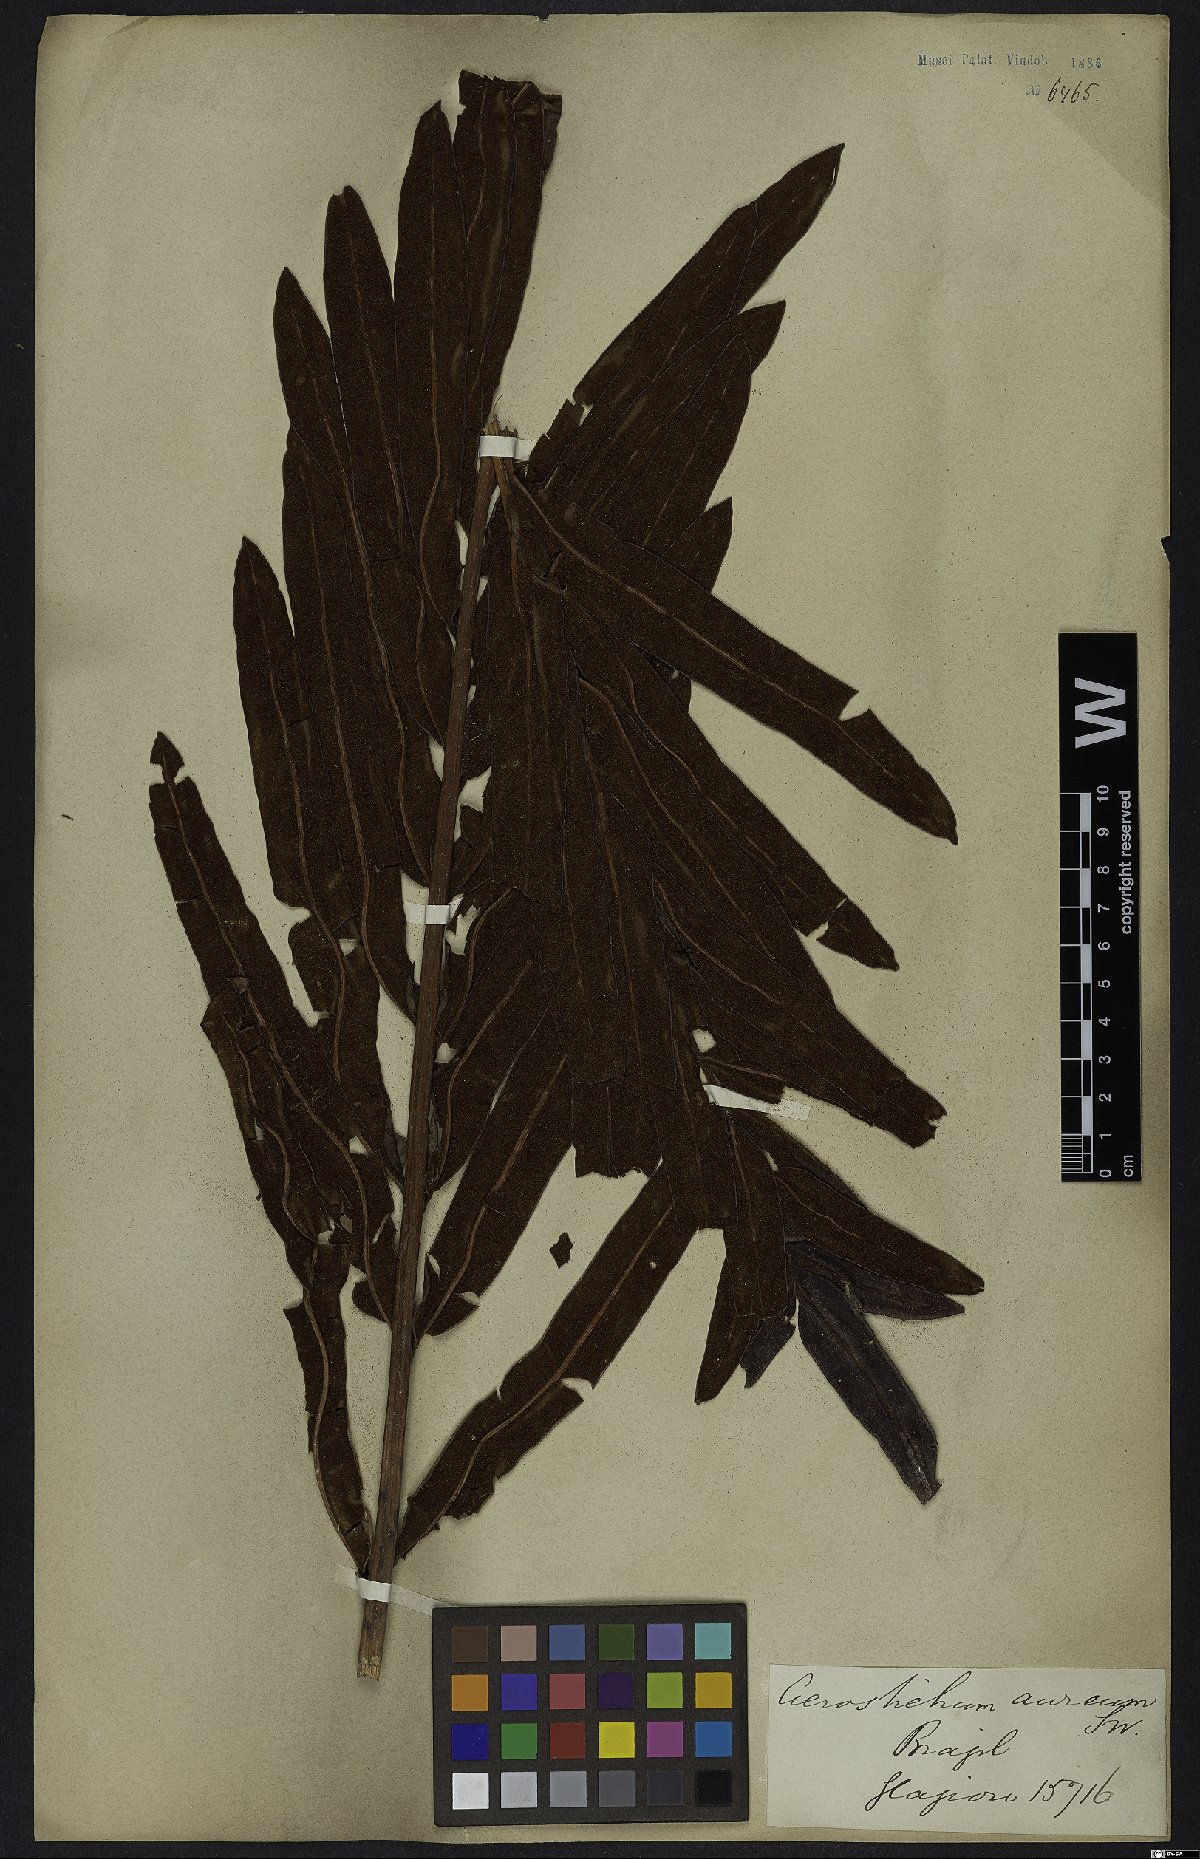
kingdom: Plantae
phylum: Tracheophyta
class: Polypodiopsida
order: Polypodiales
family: Pteridaceae
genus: Acrostichum
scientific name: Acrostichum aureum
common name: Leather fern
